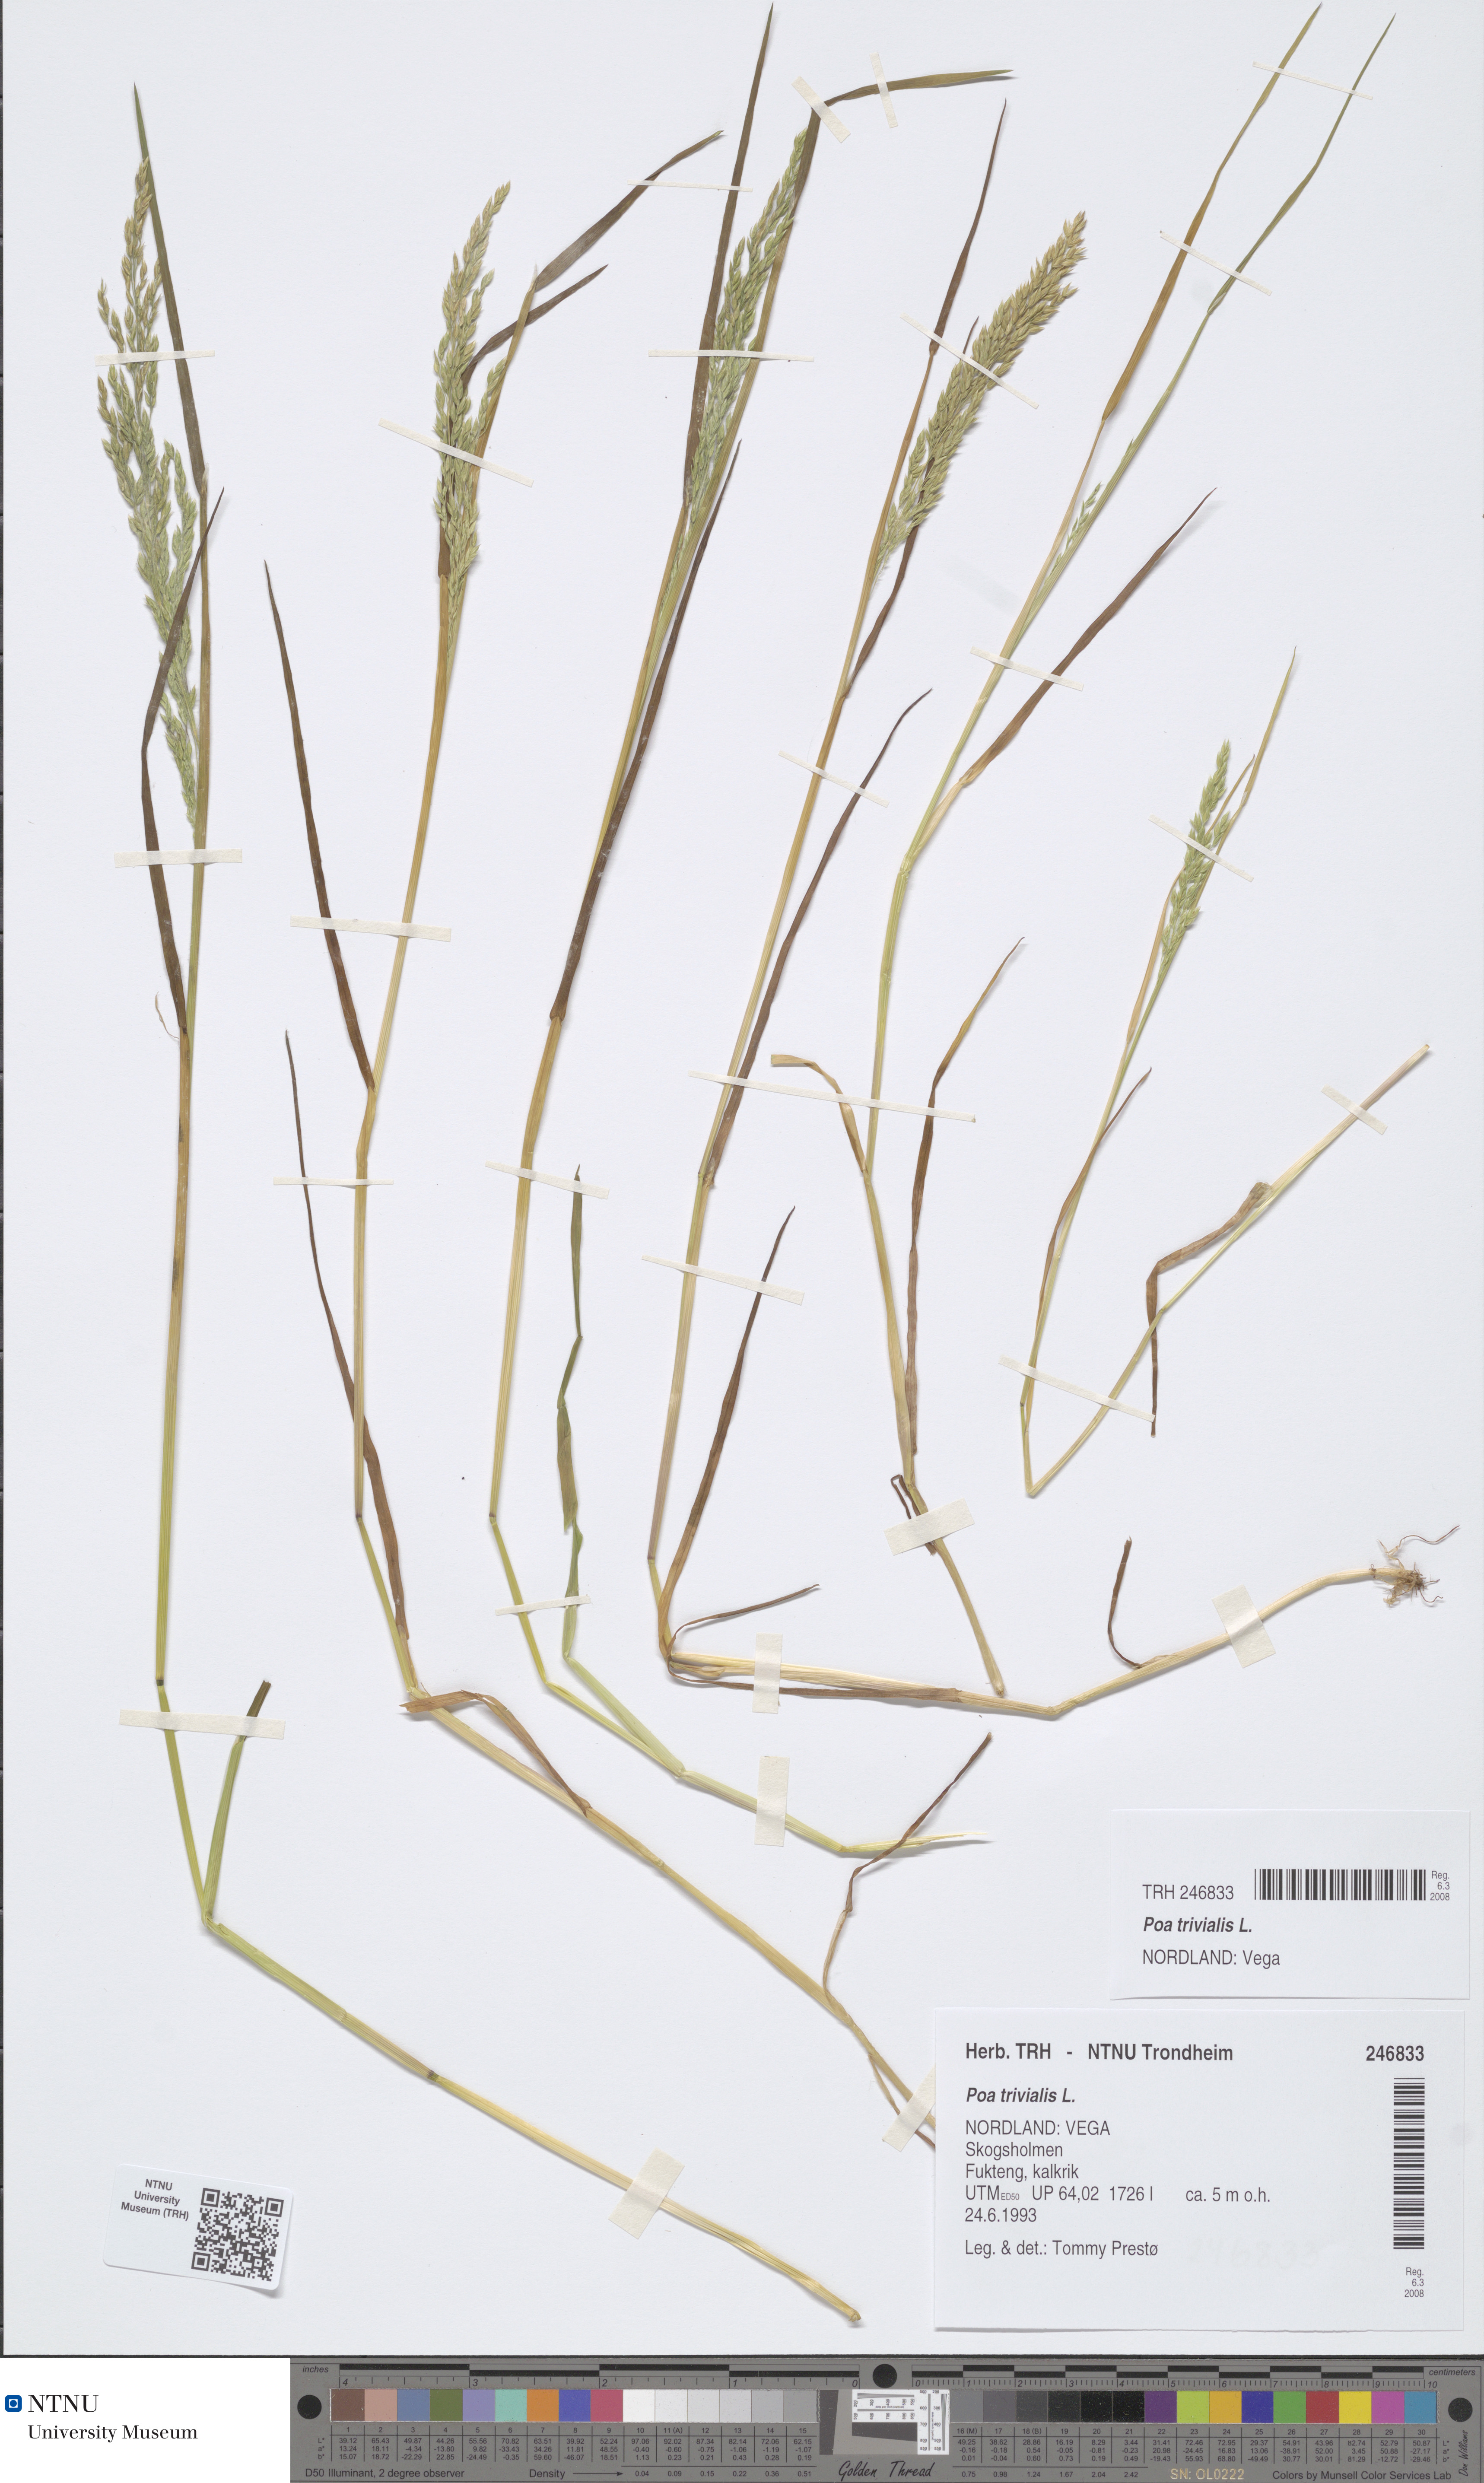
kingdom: Plantae
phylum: Tracheophyta
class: Liliopsida
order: Poales
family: Poaceae
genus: Poa
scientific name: Poa trivialis
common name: Rough bluegrass
